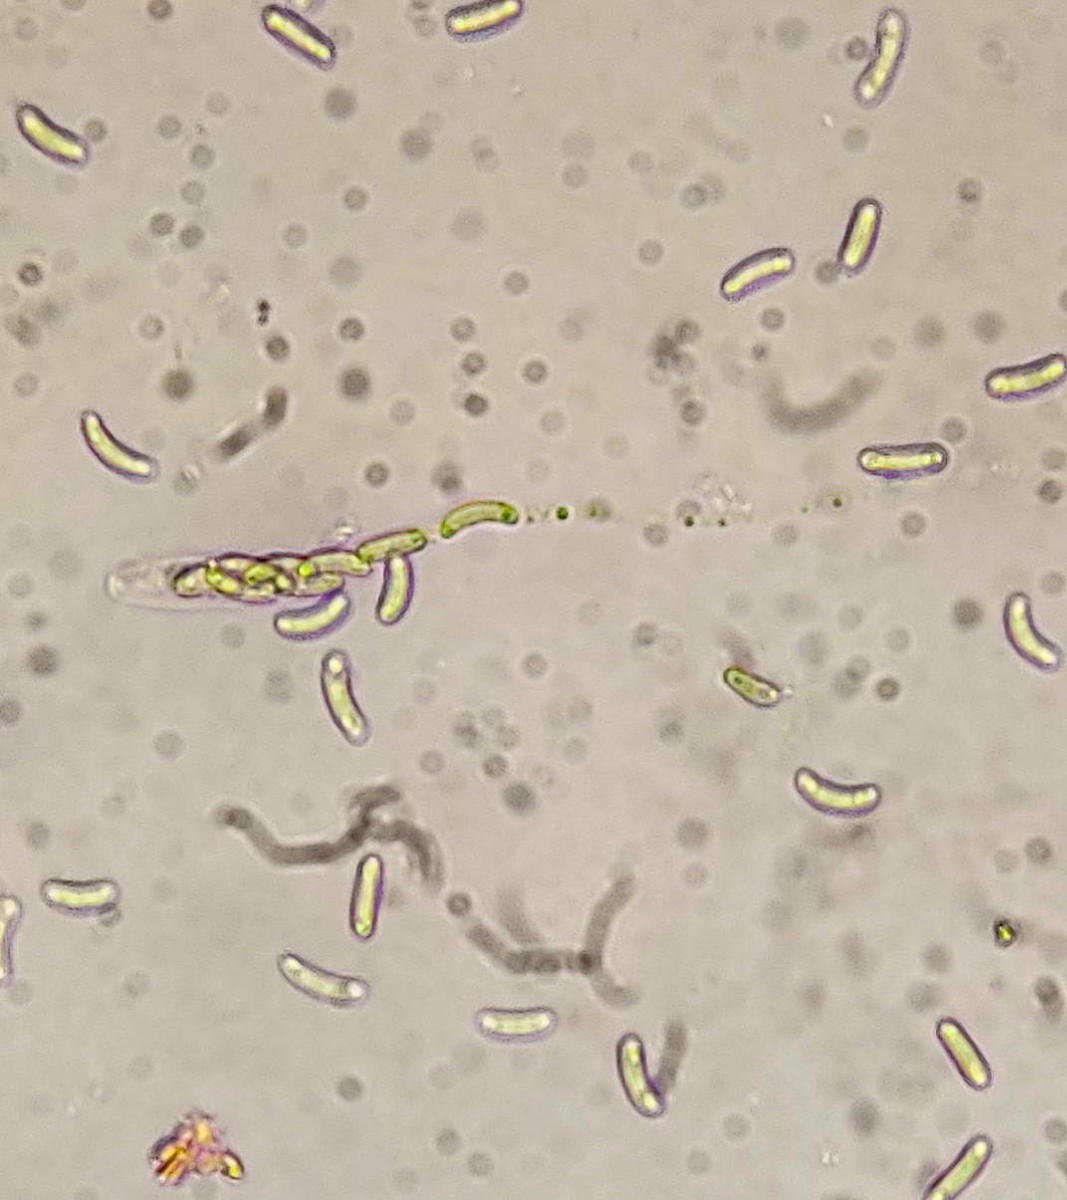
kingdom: Fungi
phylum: Ascomycota
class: Sordariomycetes
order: Xylariales
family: Diatrypaceae
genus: Eutypa
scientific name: Eutypa lata
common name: almindelig kulskorpe
